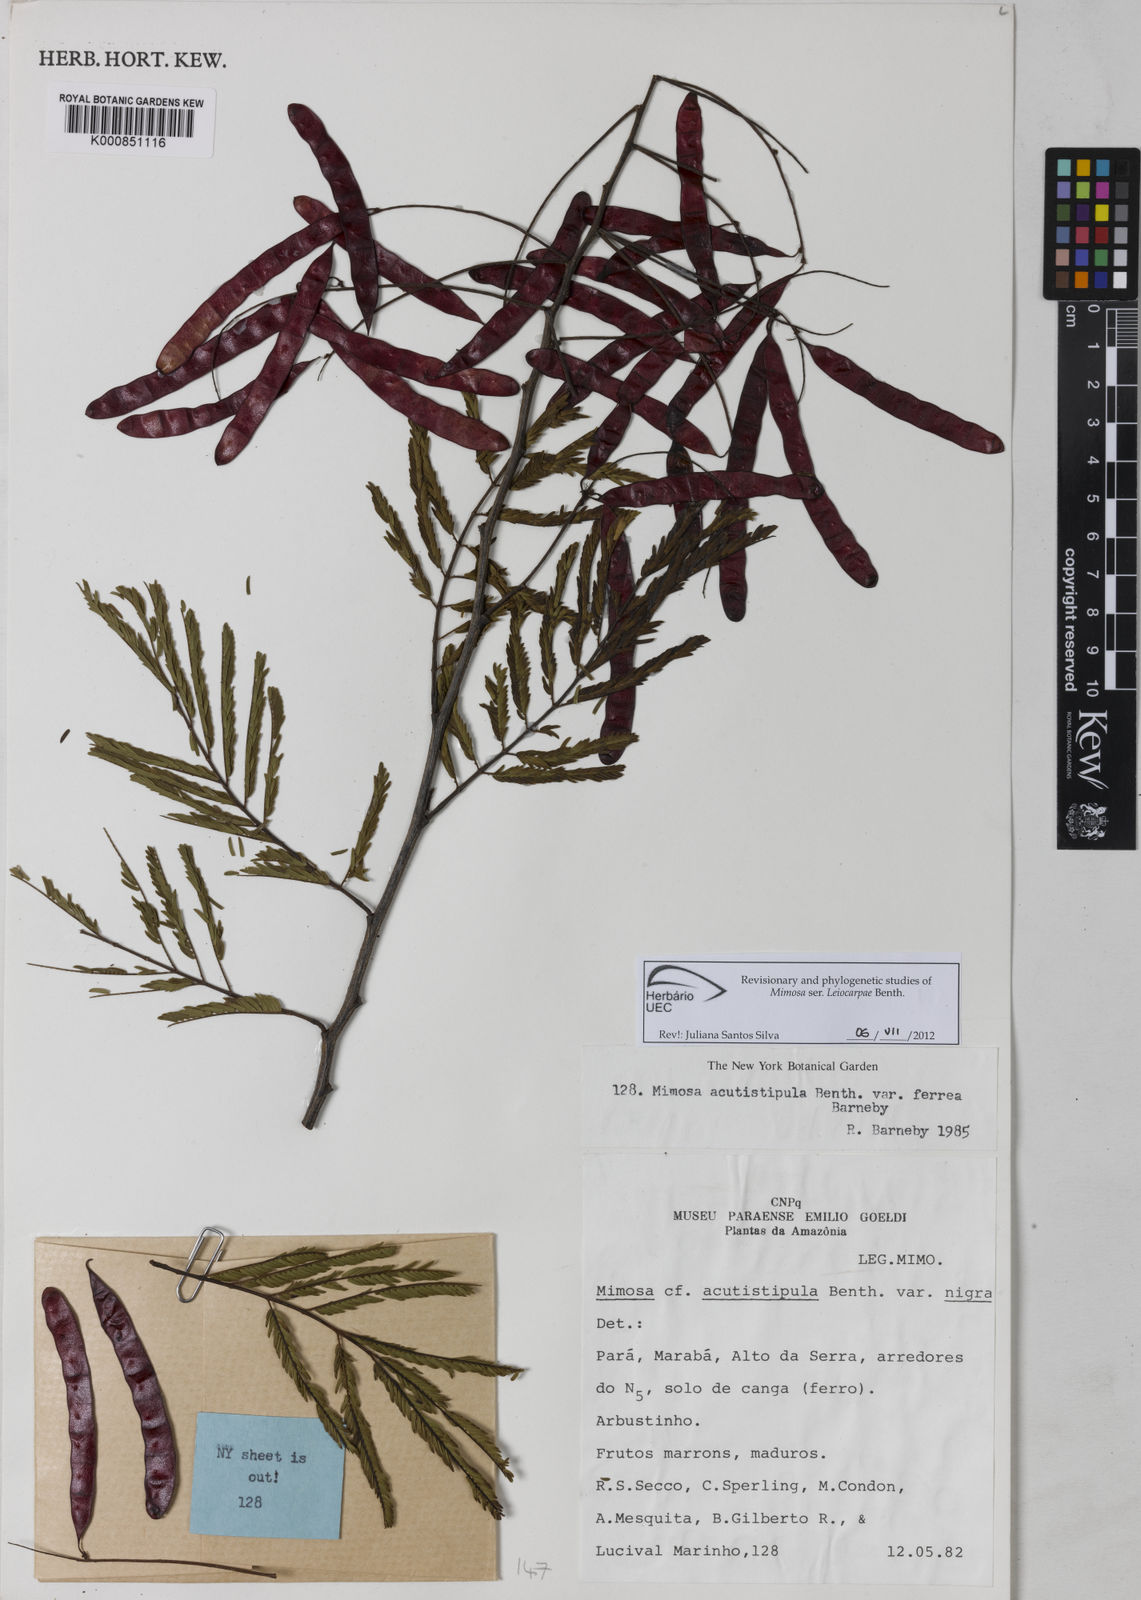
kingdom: Plantae
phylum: Tracheophyta
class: Magnoliopsida
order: Fabales
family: Fabaceae
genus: Mimosa
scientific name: Mimosa acutistipula
